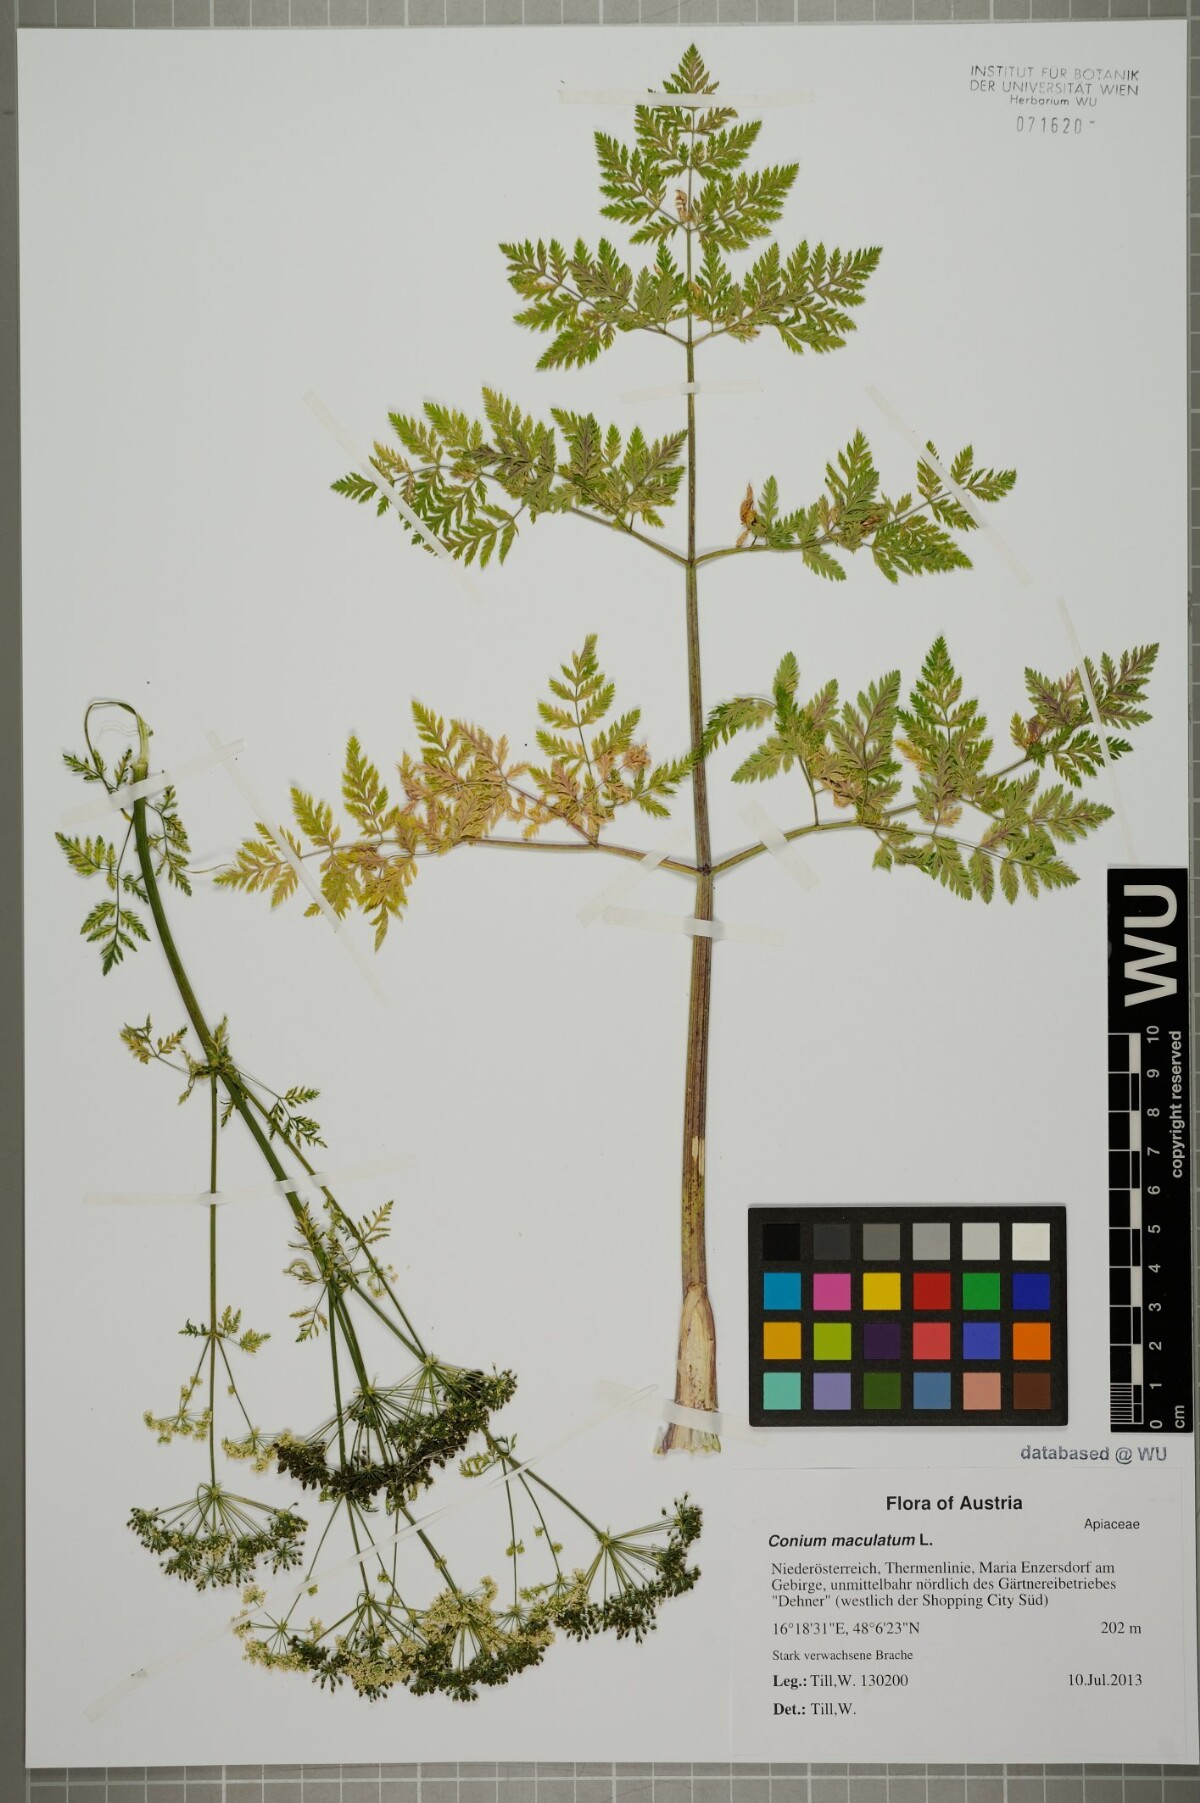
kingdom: Plantae
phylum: Tracheophyta
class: Magnoliopsida
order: Apiales
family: Apiaceae
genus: Conium
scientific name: Conium maculatum
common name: Hemlock
